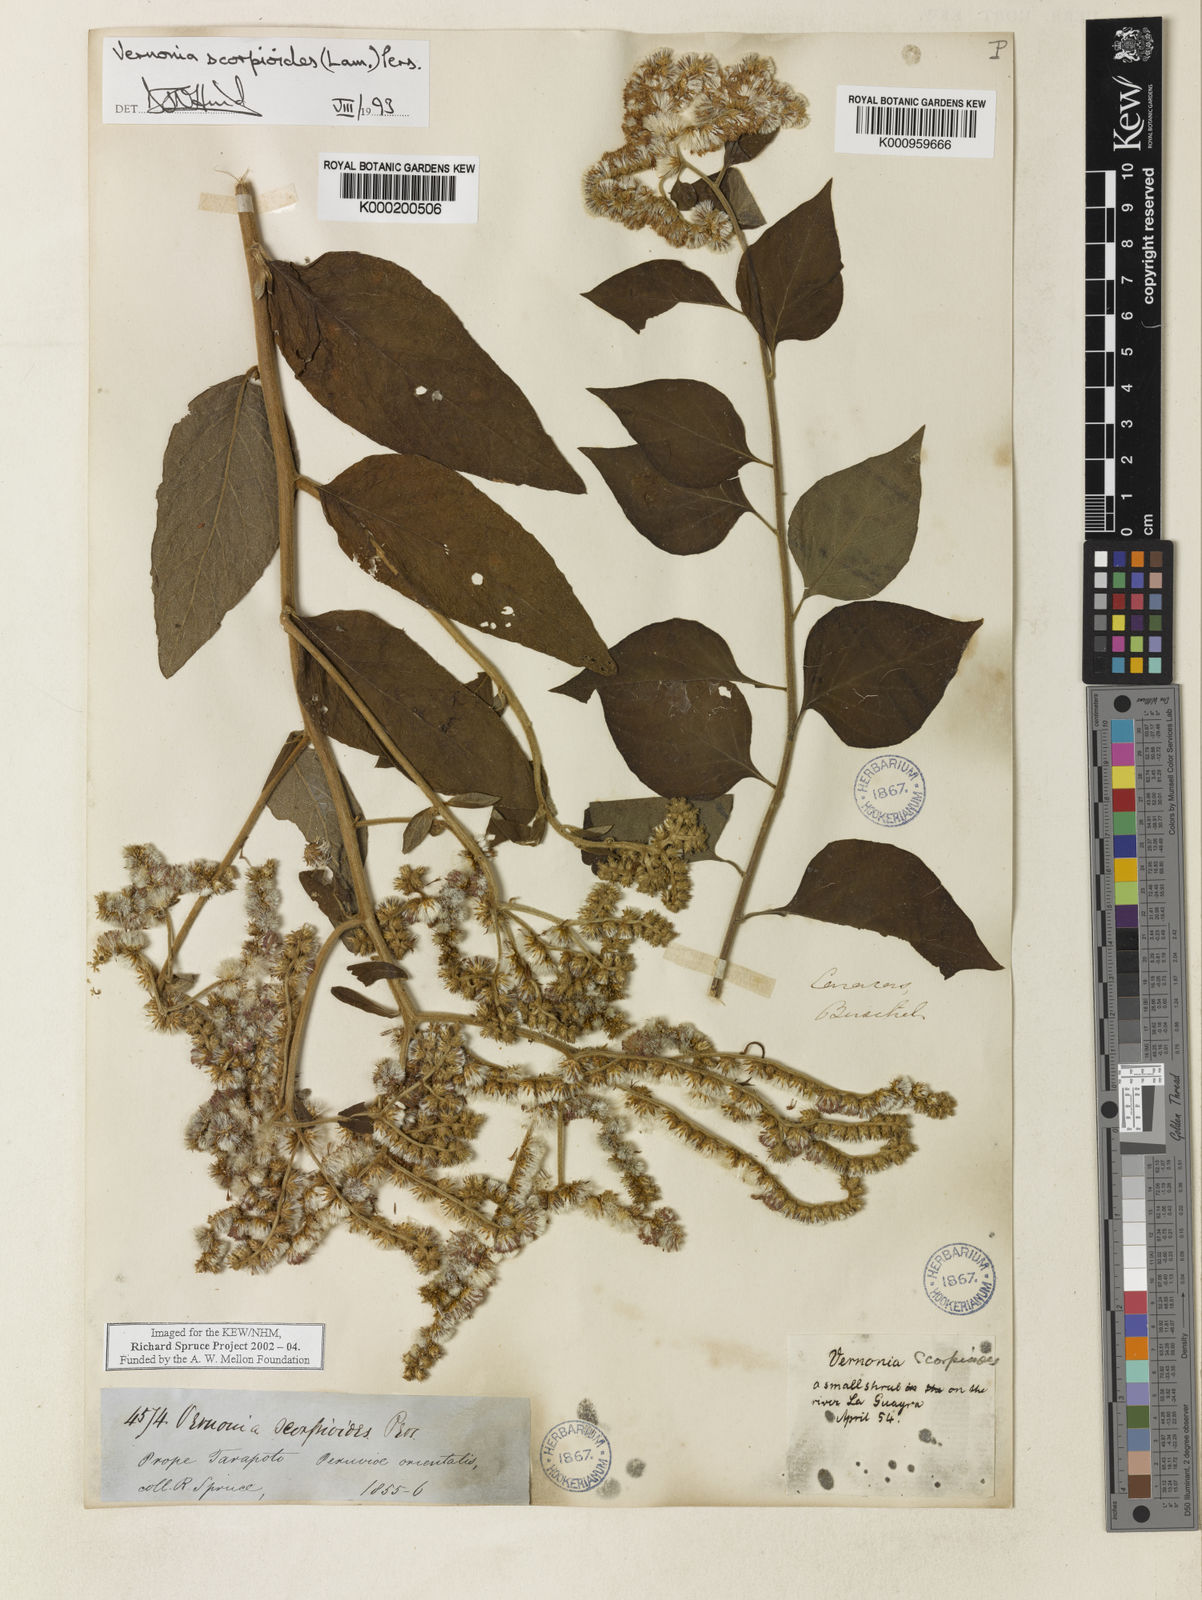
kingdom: Plantae
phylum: Tracheophyta
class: Magnoliopsida
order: Asterales
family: Asteraceae
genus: Cyrtocymura
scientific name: Cyrtocymura scorpioides
